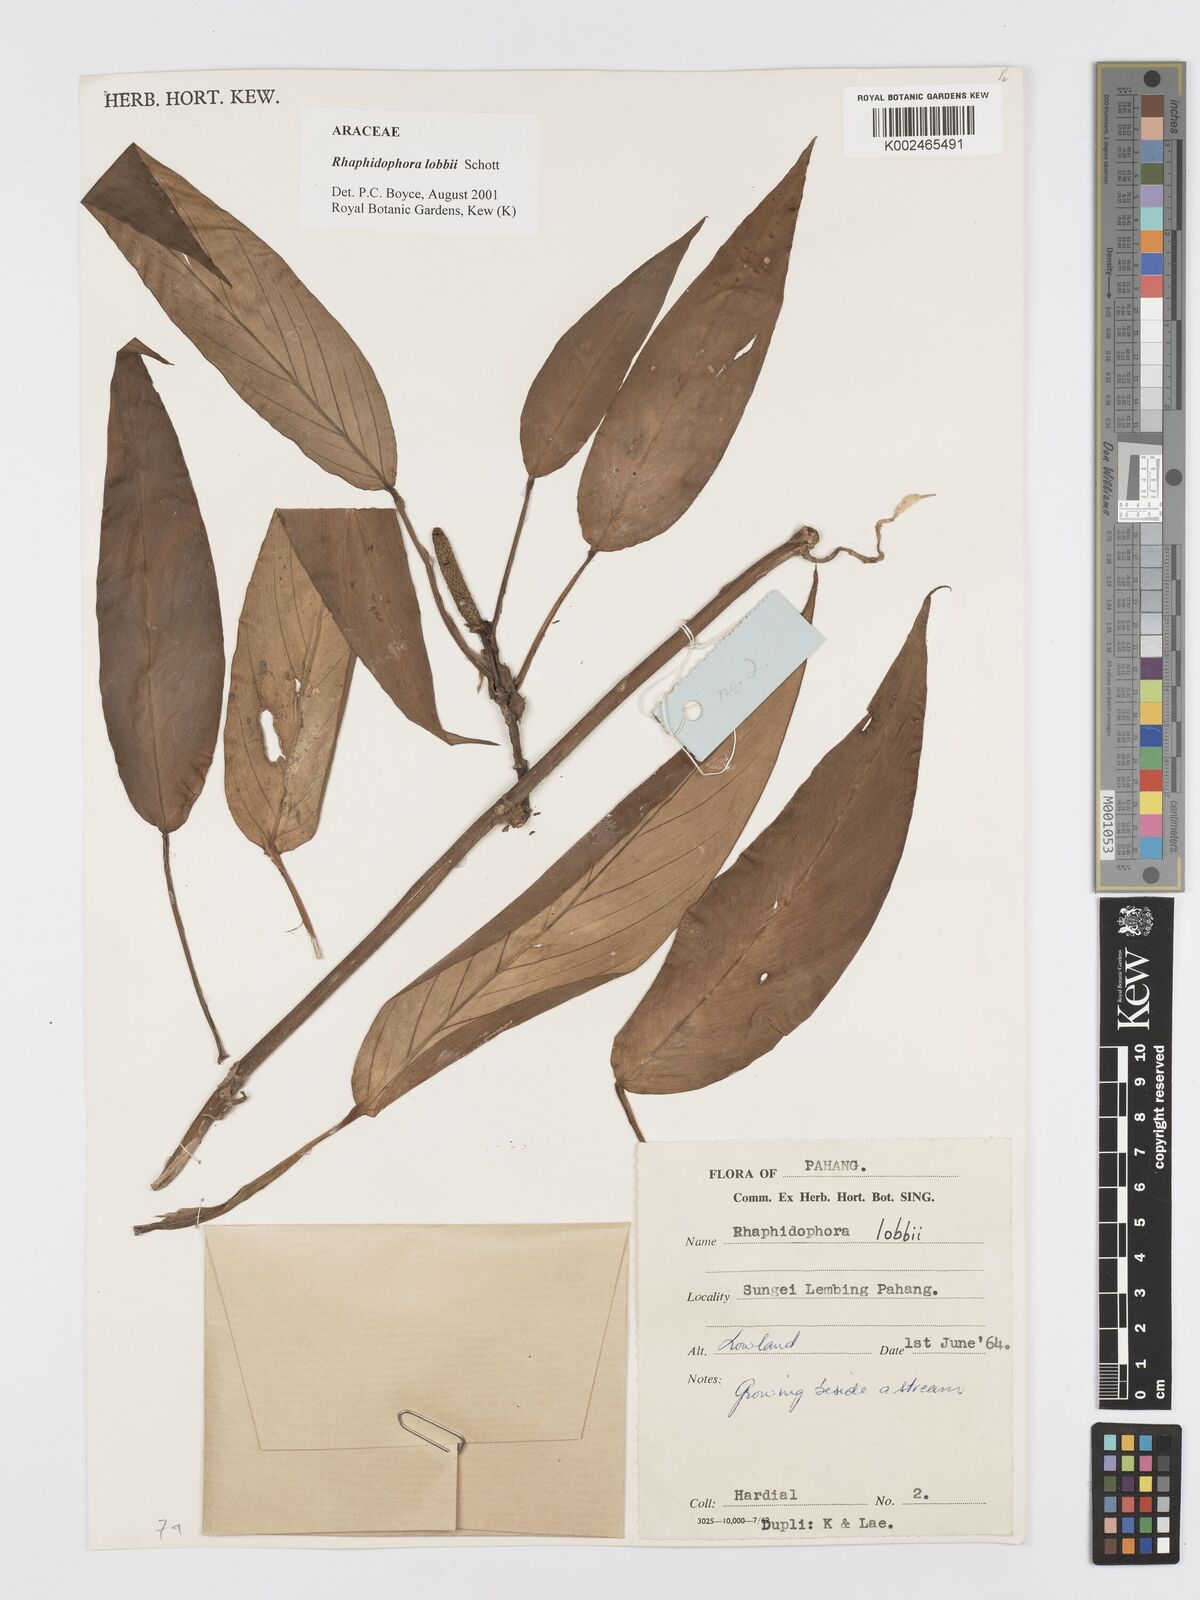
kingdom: Plantae
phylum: Tracheophyta
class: Liliopsida
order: Alismatales
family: Araceae
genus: Rhaphidophora
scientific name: Rhaphidophora lobbii
